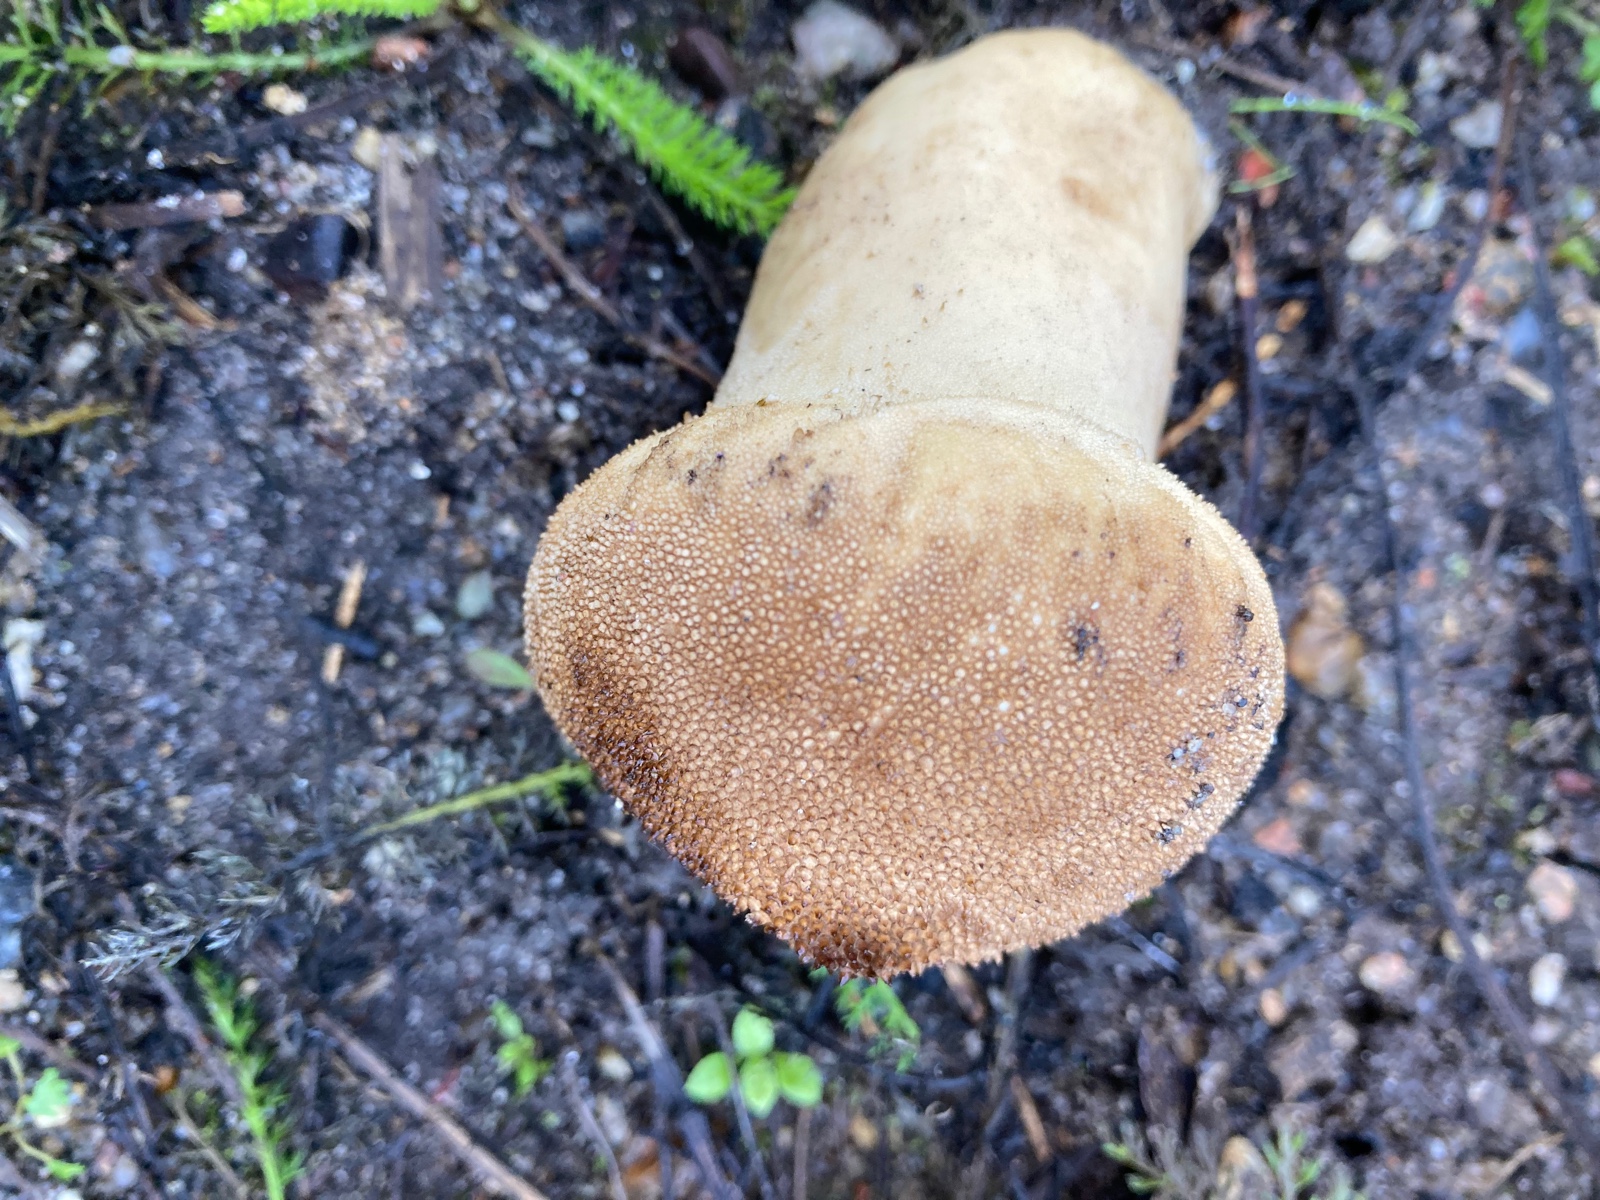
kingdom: Fungi
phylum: Basidiomycota
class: Agaricomycetes
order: Agaricales
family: Agaricaceae
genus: Lycoperdon
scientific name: Lycoperdon
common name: støvbold
